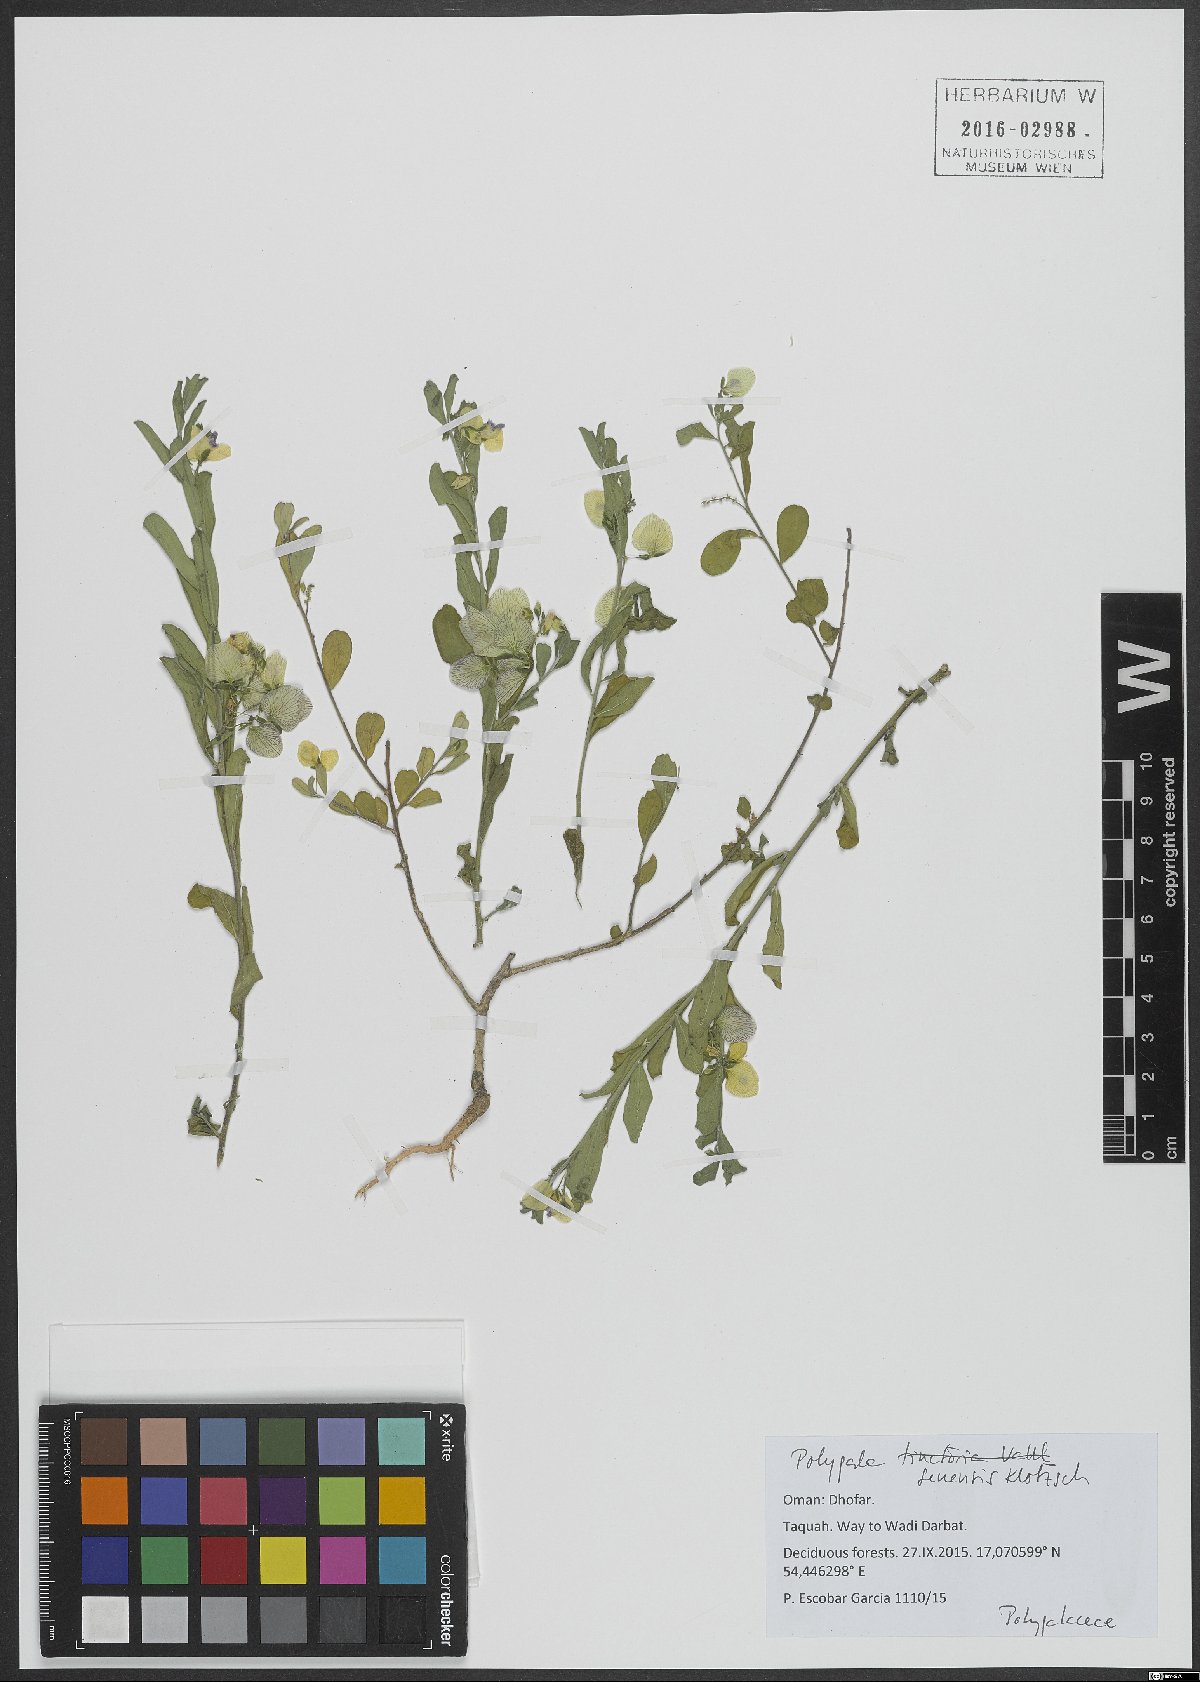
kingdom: Plantae
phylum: Tracheophyta
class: Magnoliopsida
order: Fabales
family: Polygalaceae
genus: Polygala
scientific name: Polygala glomerata
